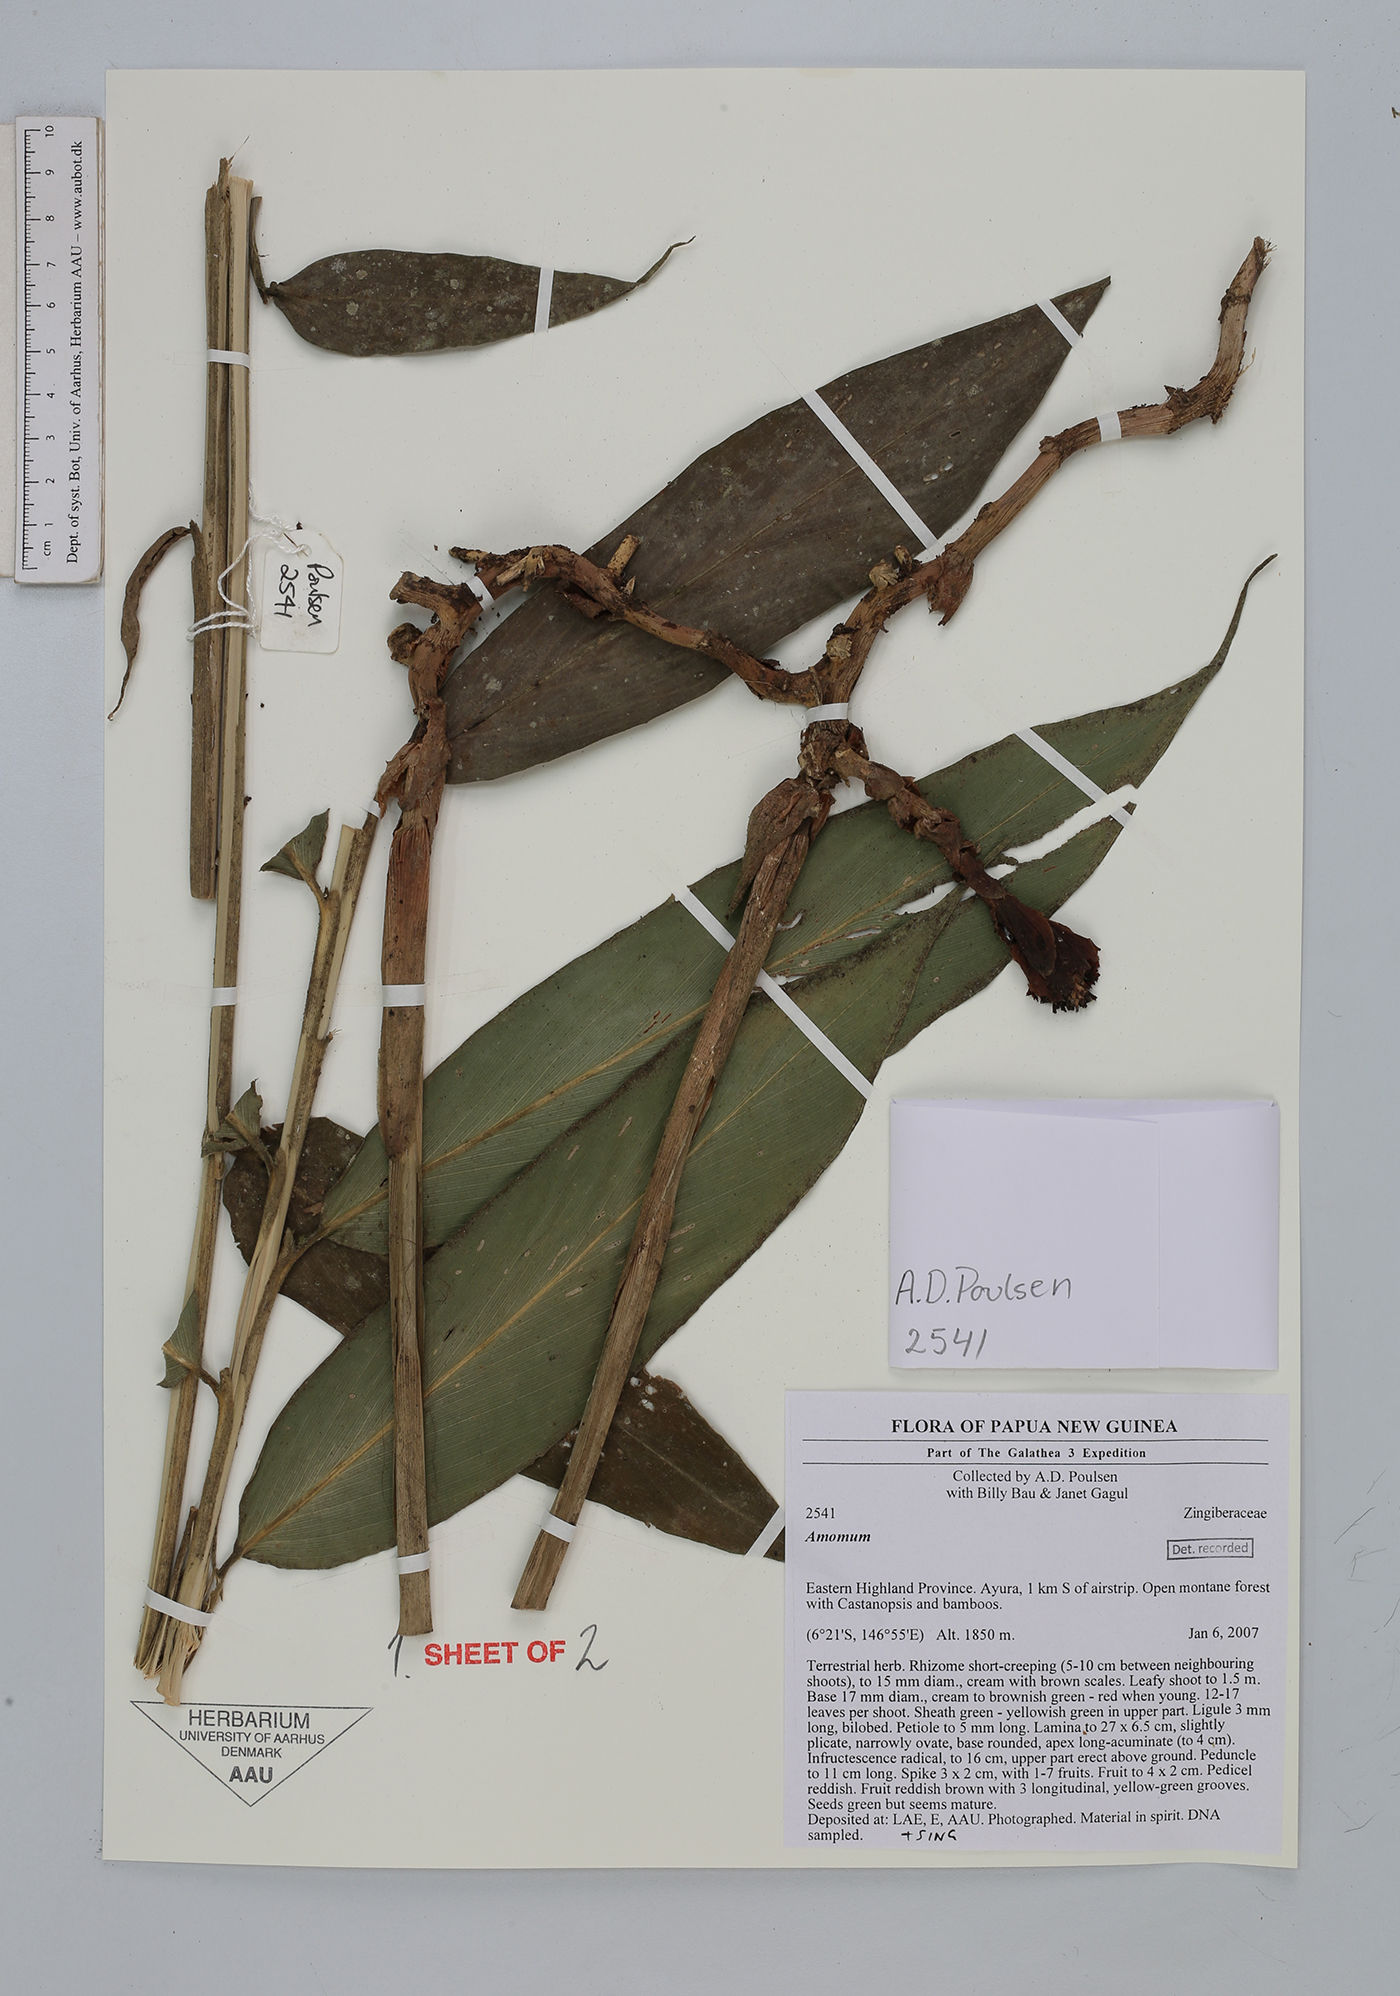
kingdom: Plantae
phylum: Tracheophyta
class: Liliopsida
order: Zingiberales
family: Zingiberaceae
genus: Amomum
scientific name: Amomum
